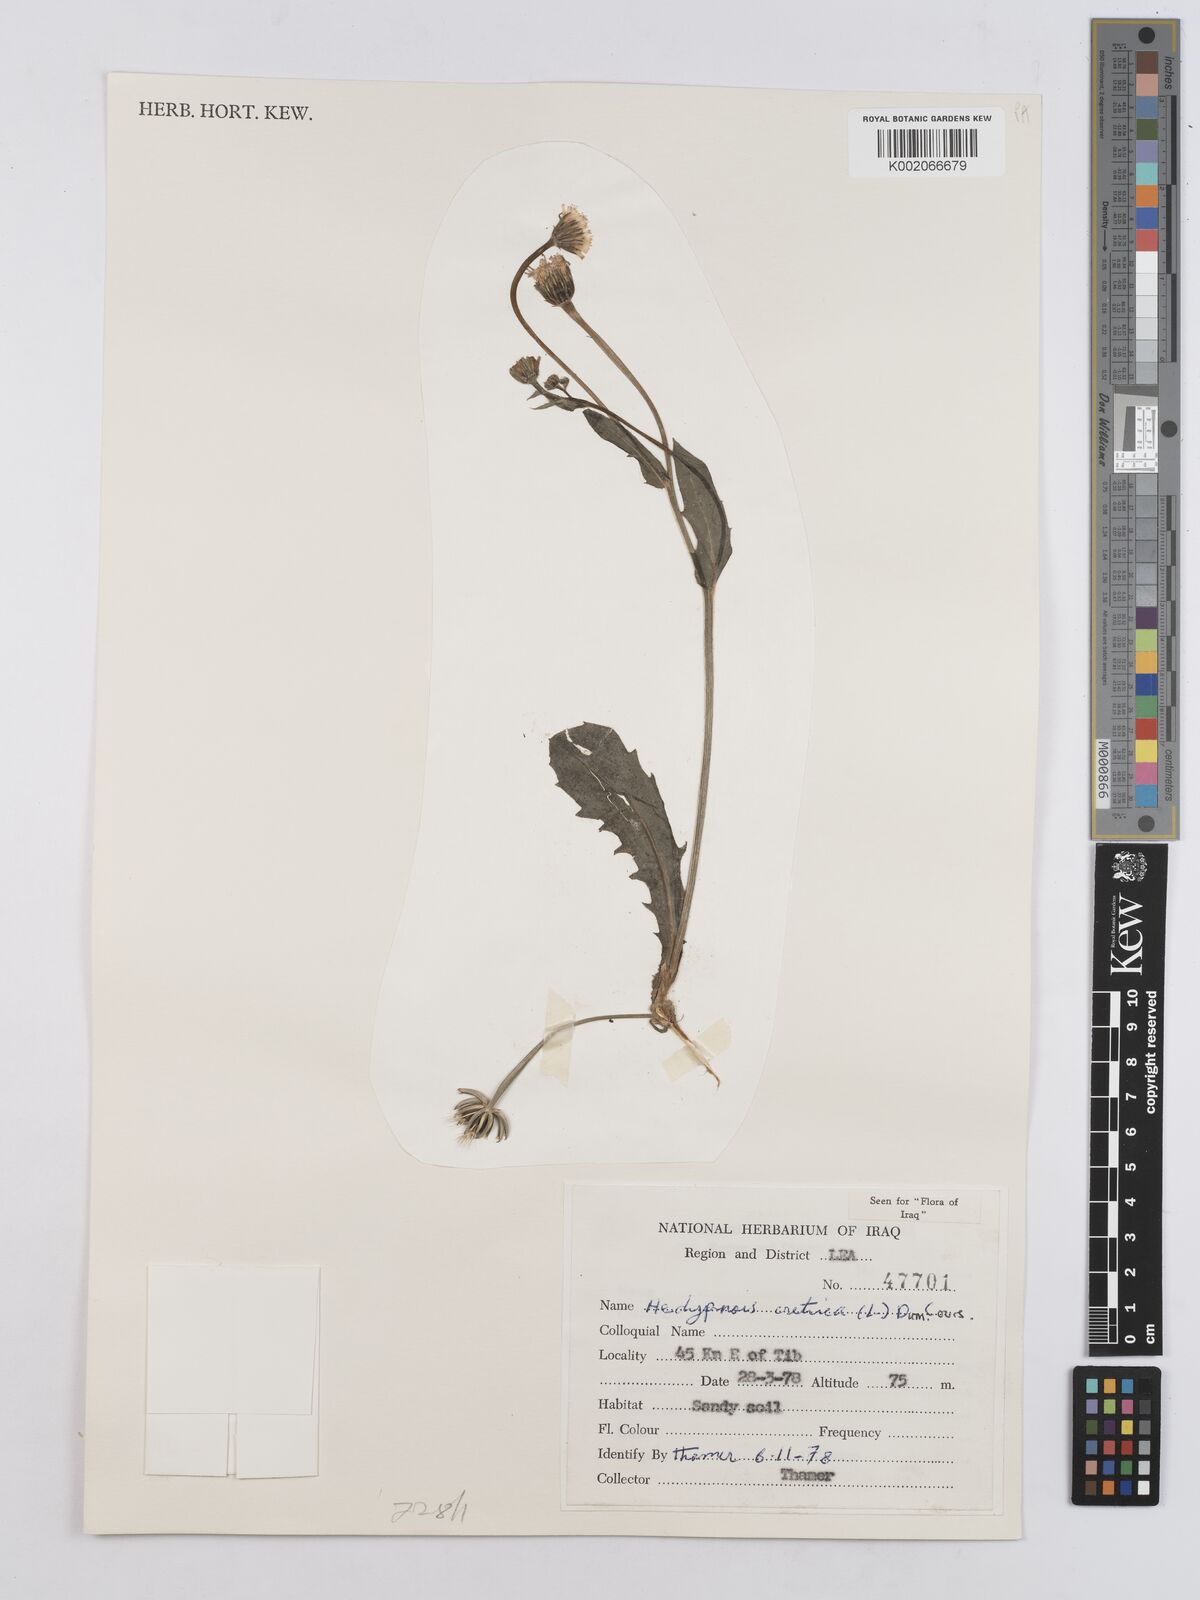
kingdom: Plantae
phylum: Tracheophyta
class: Magnoliopsida
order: Asterales
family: Asteraceae
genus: Hedypnois
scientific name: Hedypnois cretica
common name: Scaly hawkbit
